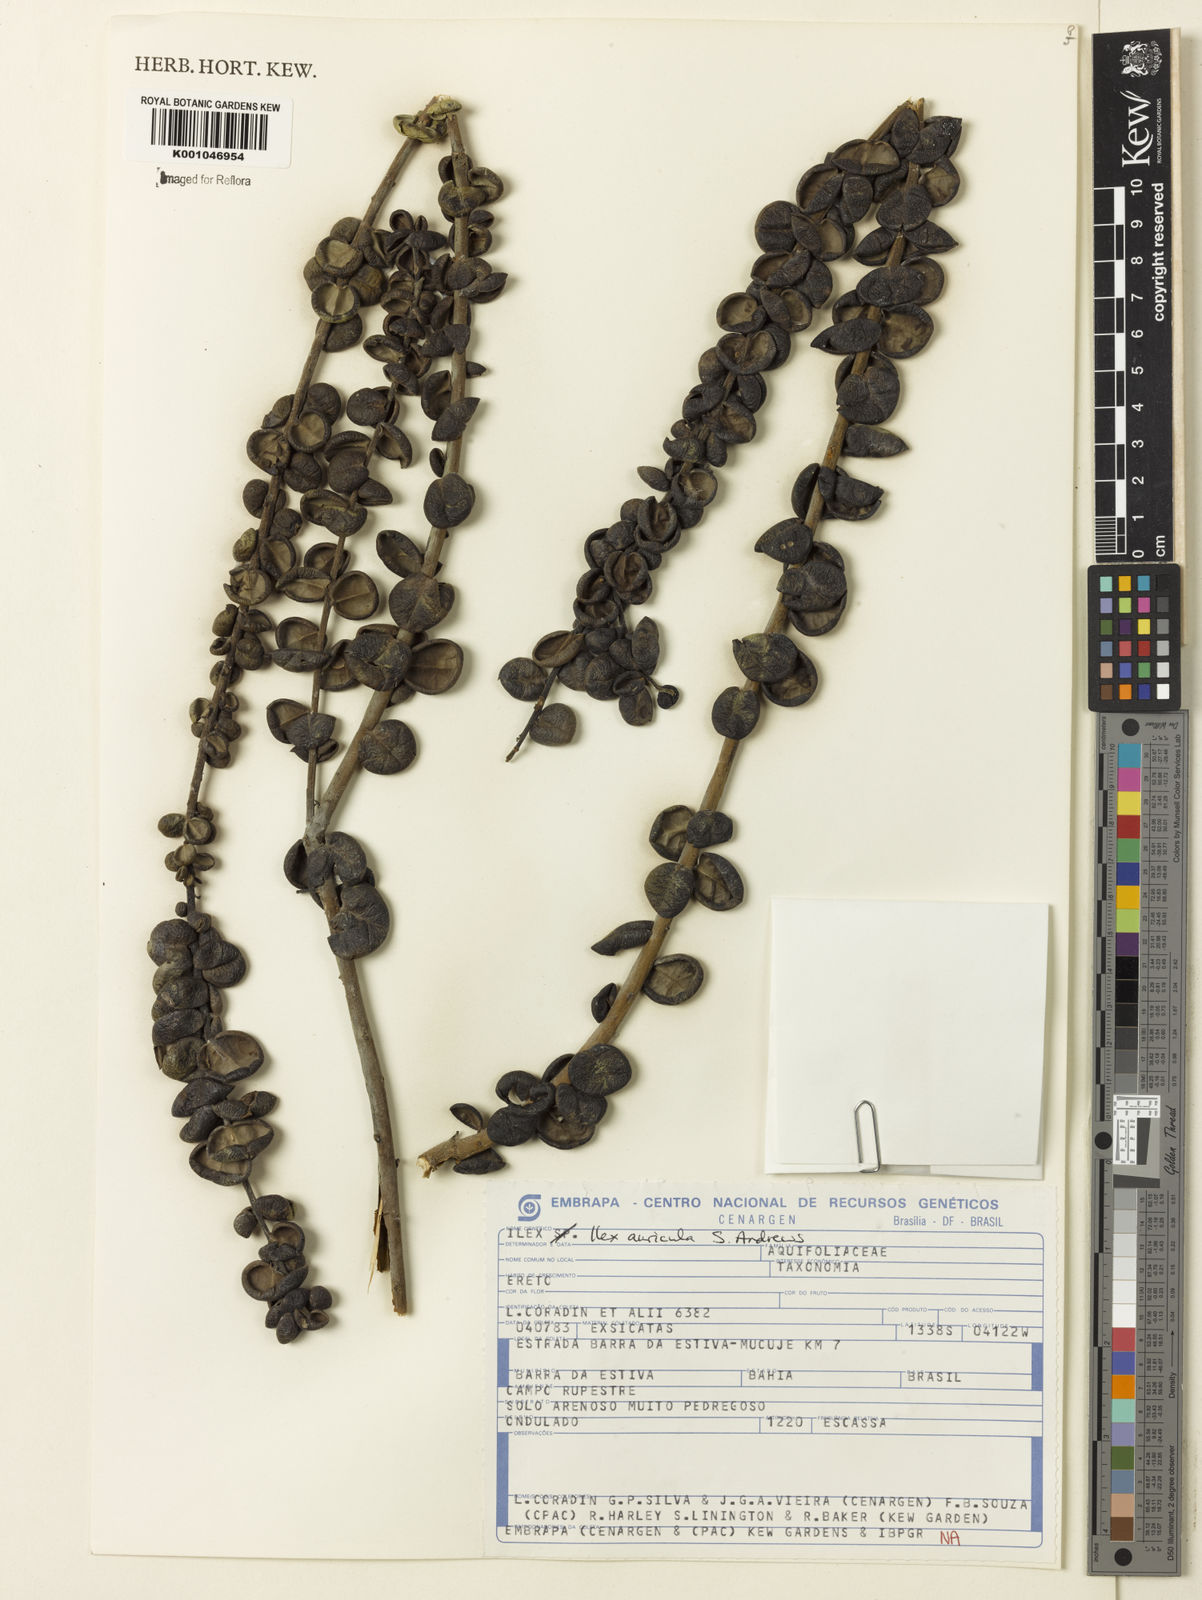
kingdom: Plantae
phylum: Tracheophyta
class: Magnoliopsida
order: Aquifoliales
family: Aquifoliaceae
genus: Ilex
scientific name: Ilex auricula
